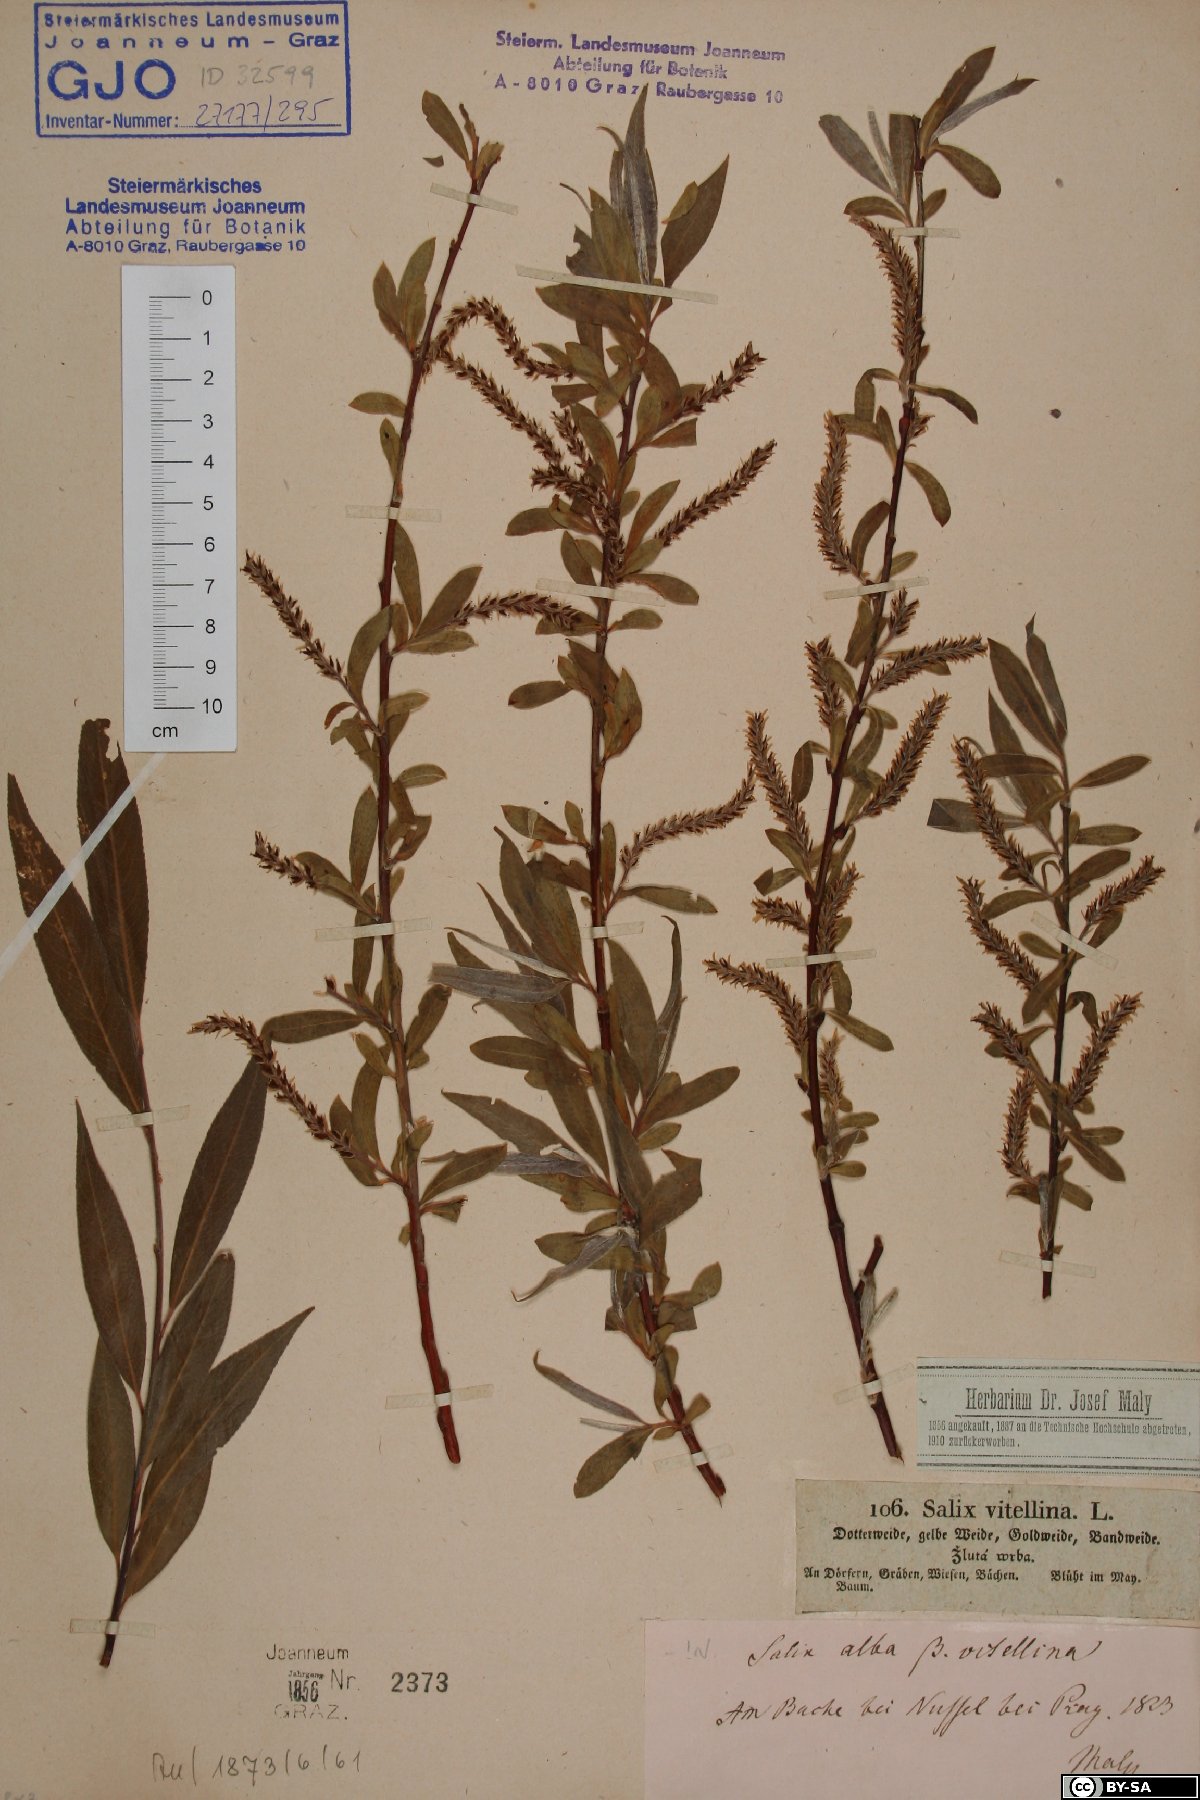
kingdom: Plantae
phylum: Tracheophyta
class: Magnoliopsida
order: Malpighiales
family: Salicaceae
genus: Salix
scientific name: Salix alba
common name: White willow
